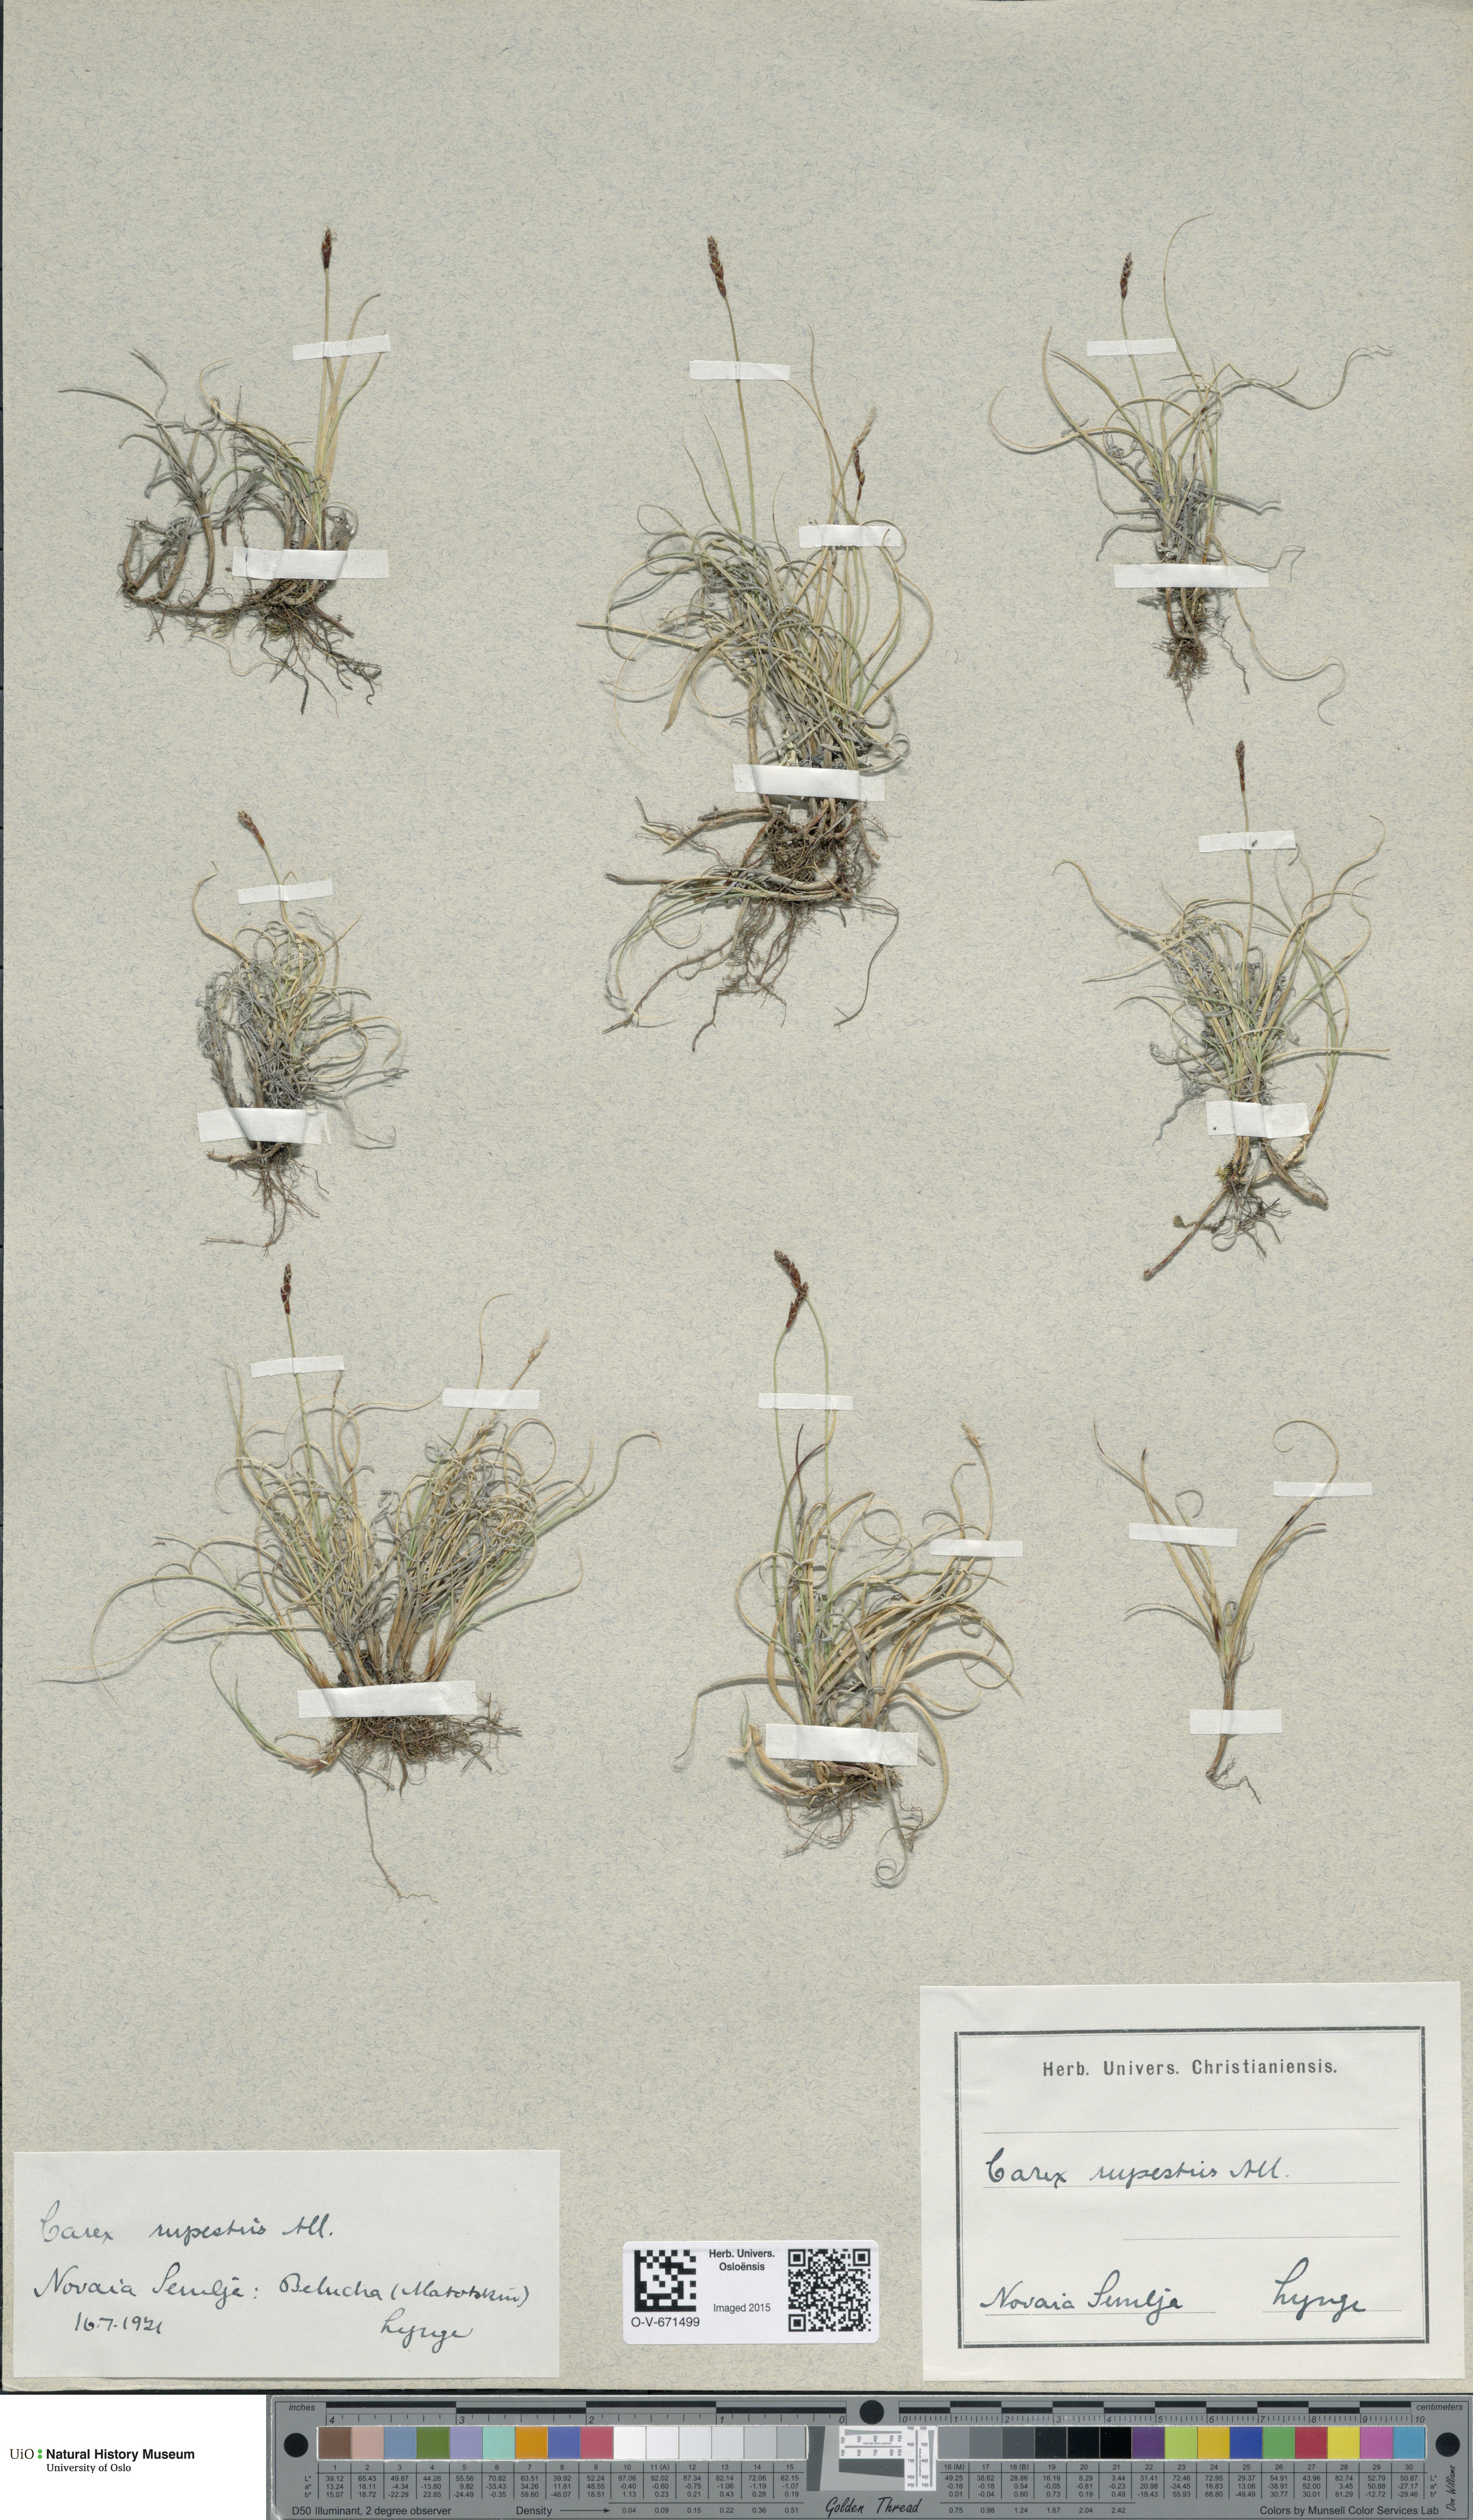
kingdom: Plantae
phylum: Tracheophyta
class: Liliopsida
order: Poales
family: Cyperaceae
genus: Carex
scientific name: Carex rupestris
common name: Rock sedge
